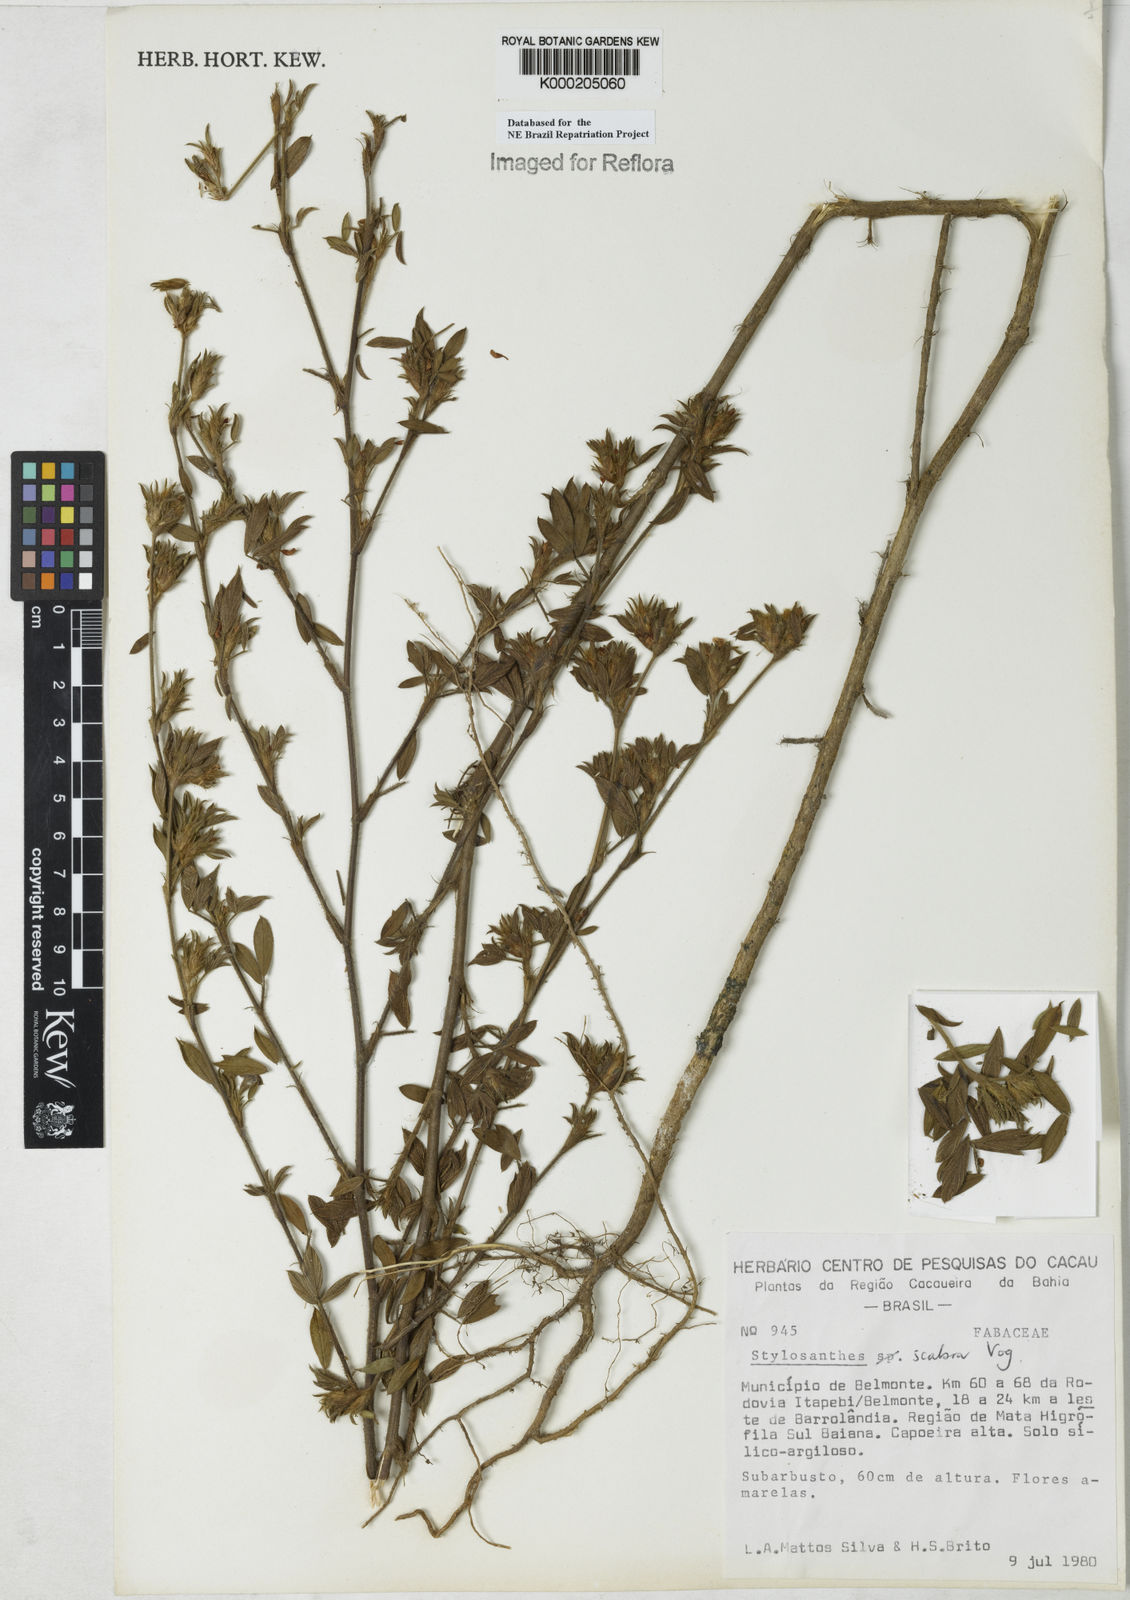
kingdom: Plantae
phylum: Tracheophyta
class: Magnoliopsida
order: Fabales
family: Fabaceae
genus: Stylosanthes
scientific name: Stylosanthes scabra
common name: Pencilflower
